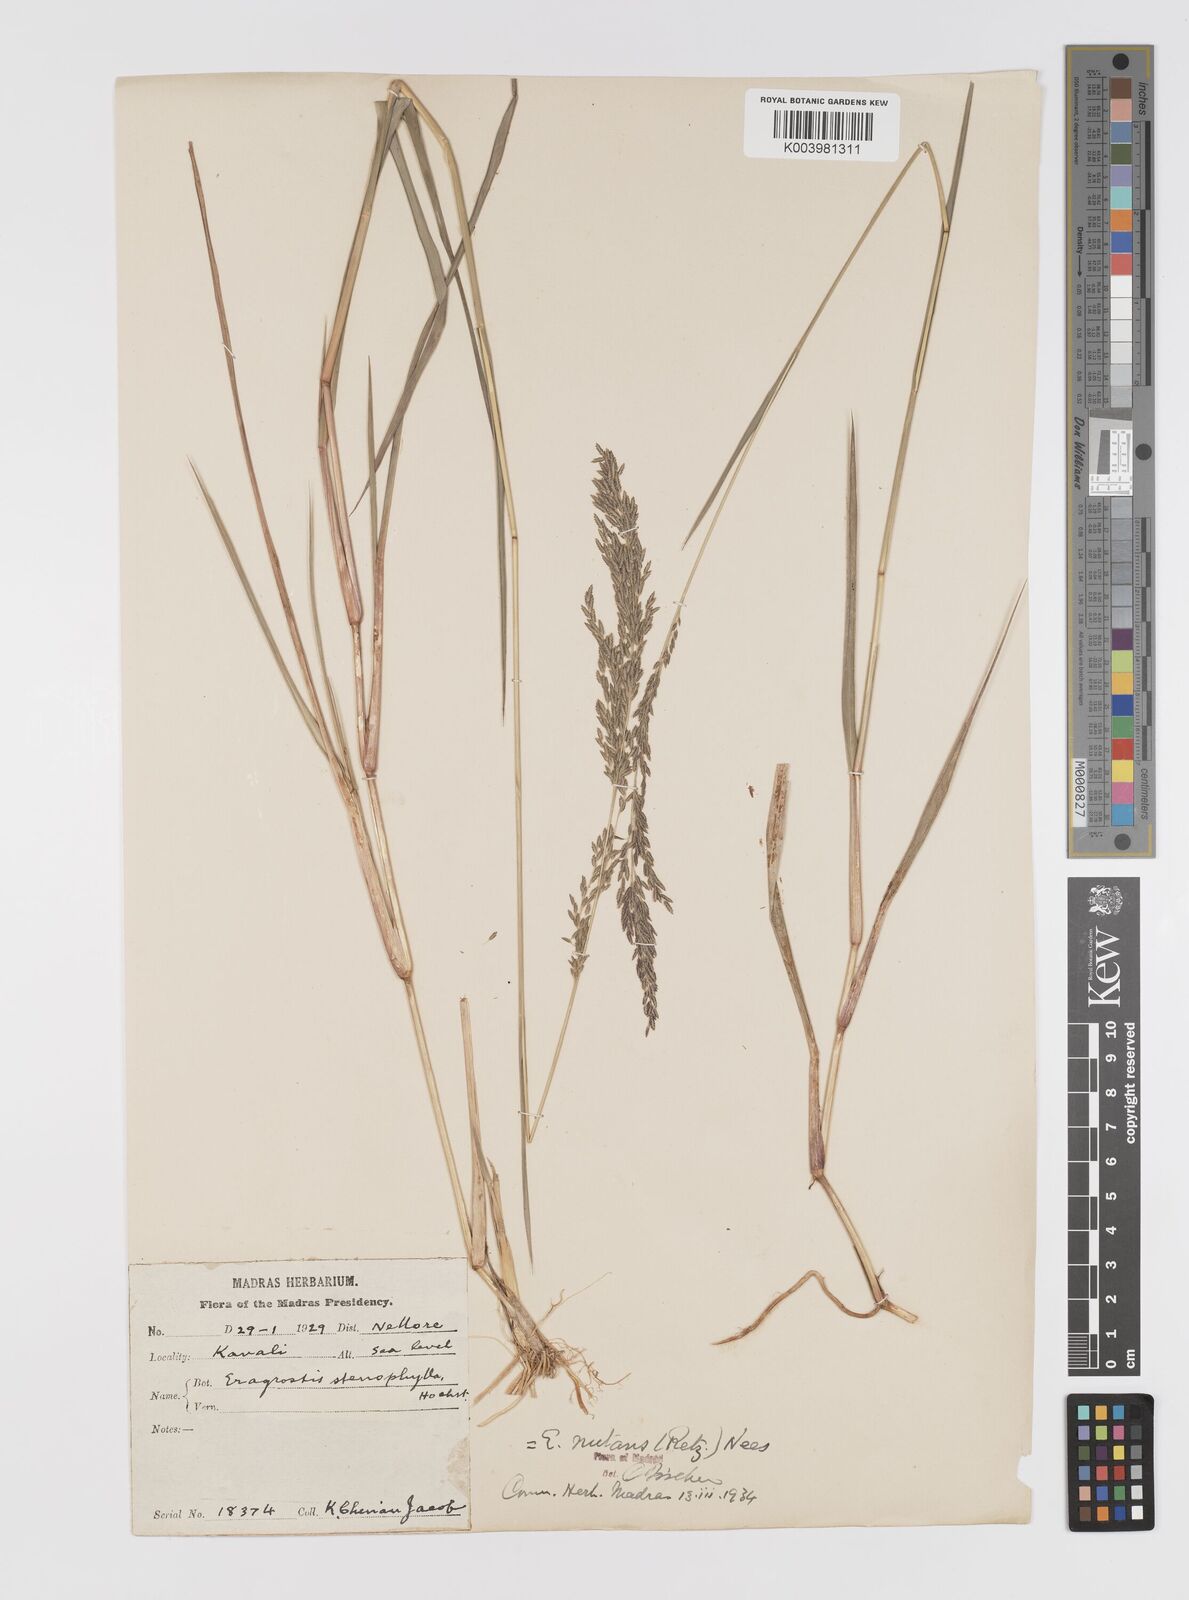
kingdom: Plantae
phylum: Tracheophyta
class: Liliopsida
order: Poales
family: Poaceae
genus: Eragrostis
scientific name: Eragrostis
